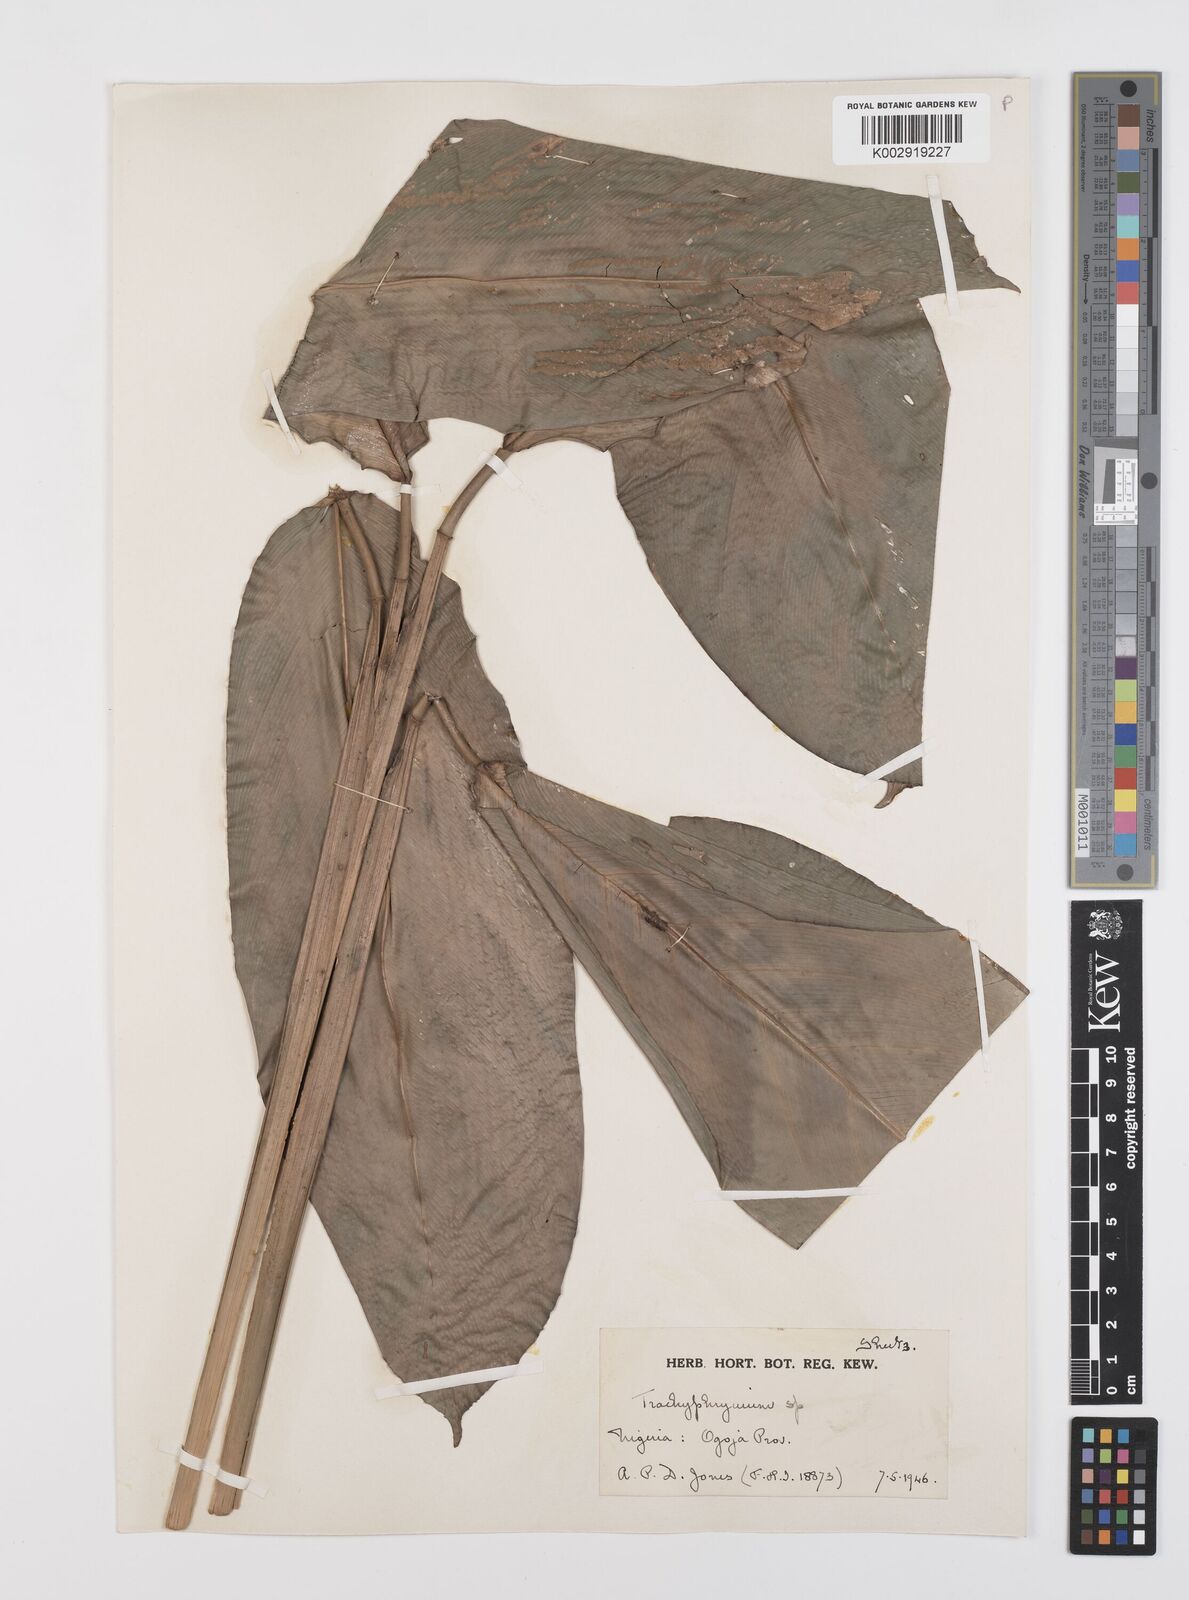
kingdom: Plantae
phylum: Tracheophyta
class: Liliopsida
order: Zingiberales
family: Marantaceae
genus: Hypselodelphys
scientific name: Hypselodelphys scandens
